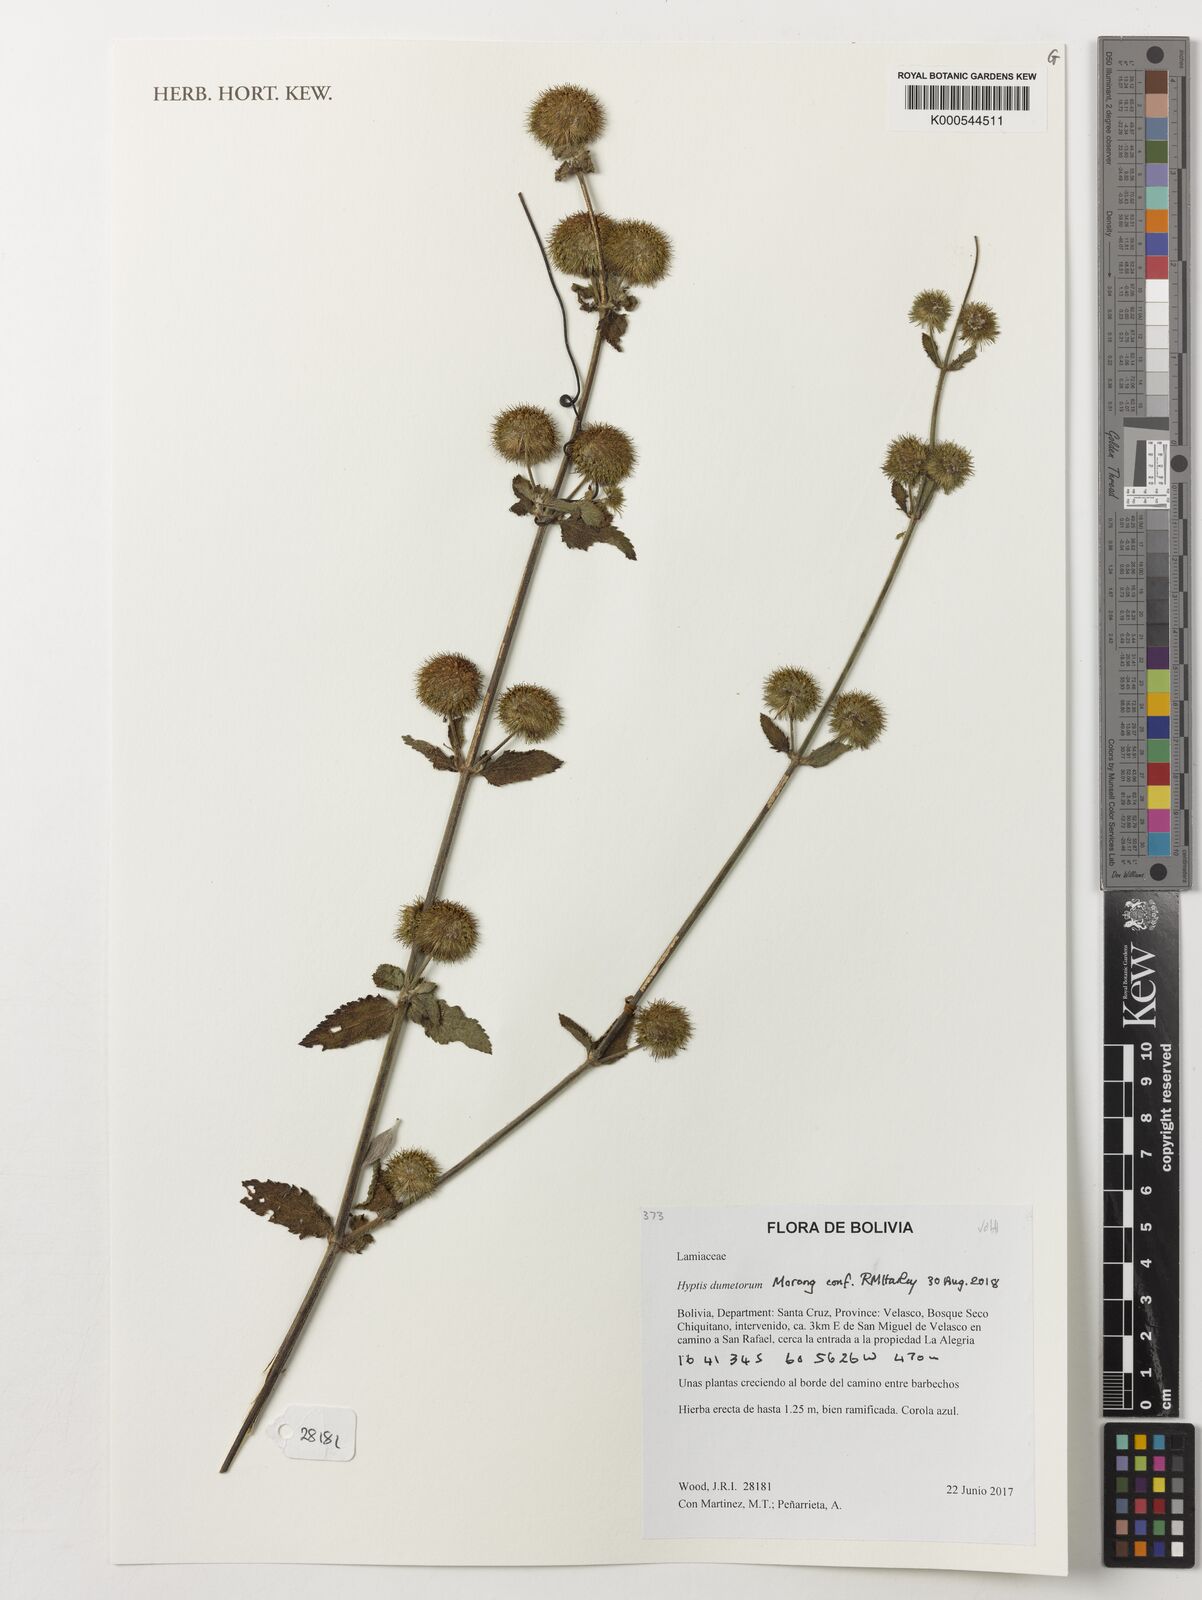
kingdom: Plantae
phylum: Tracheophyta
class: Magnoliopsida
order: Lamiales
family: Lamiaceae
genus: Hyptis
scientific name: Hyptis dumetorum
